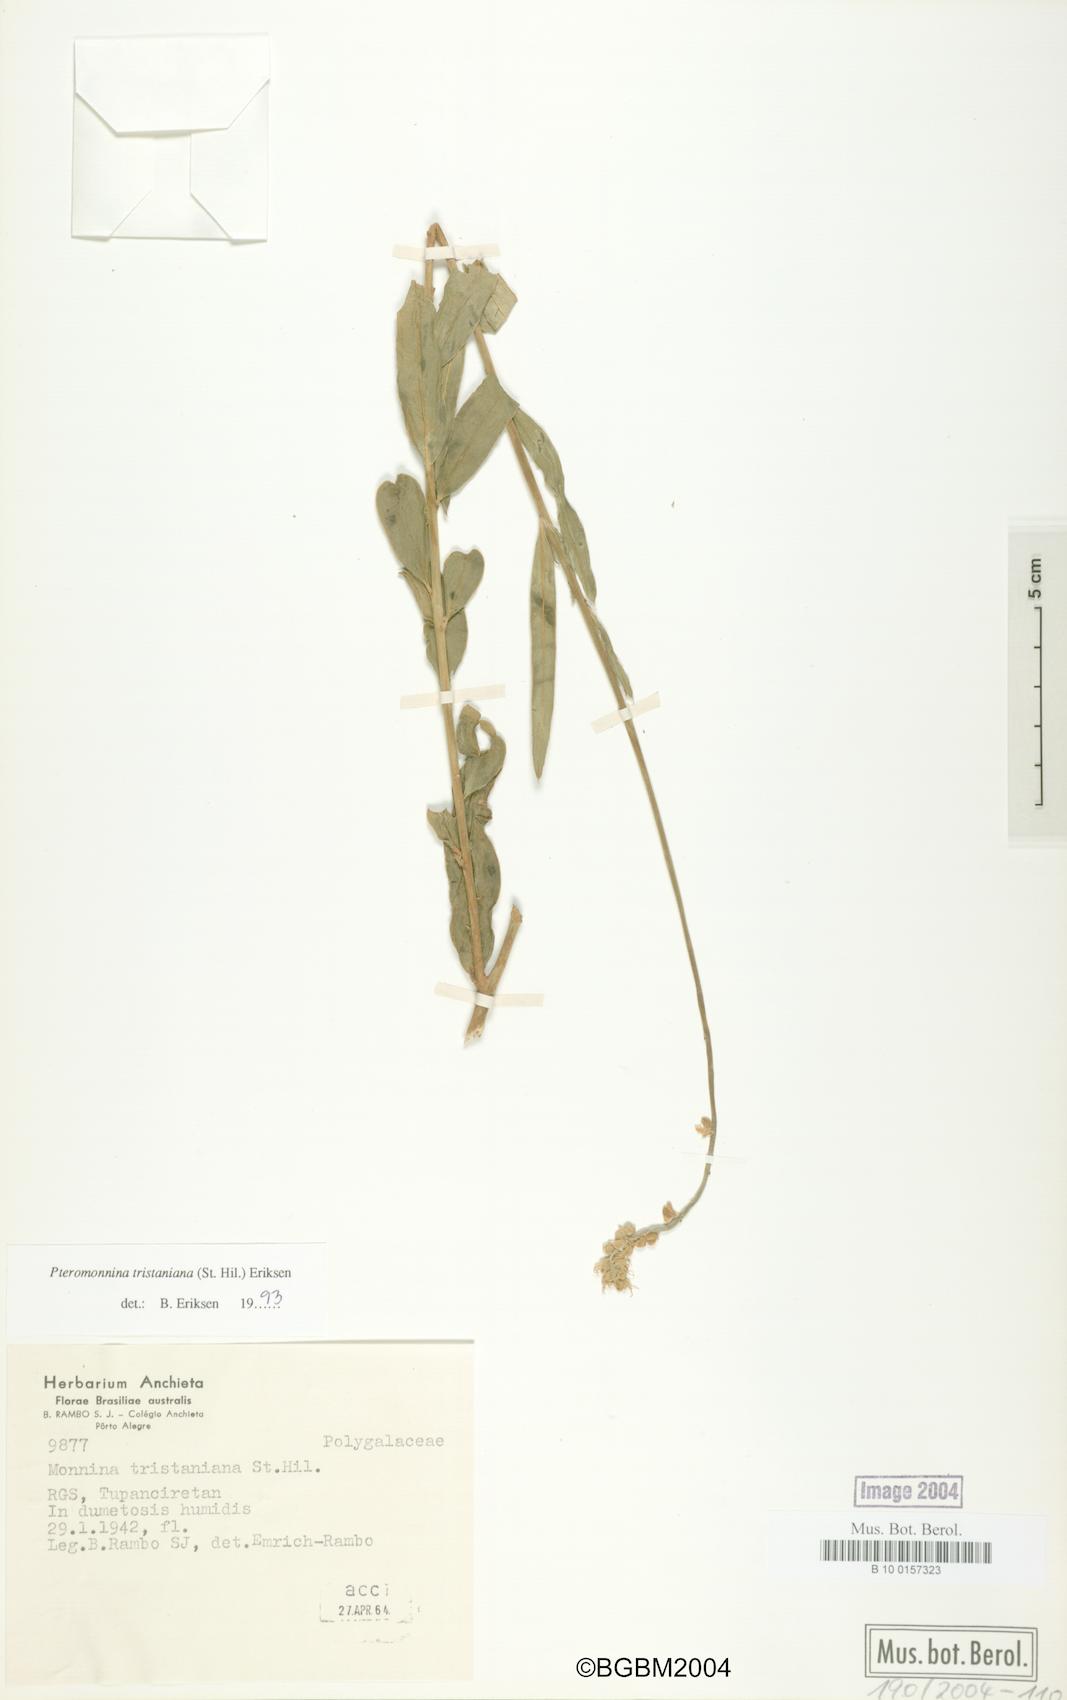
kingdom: Plantae
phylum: Tracheophyta
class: Magnoliopsida
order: Fabales
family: Polygalaceae
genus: Monnina
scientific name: Monnina tristaniana
